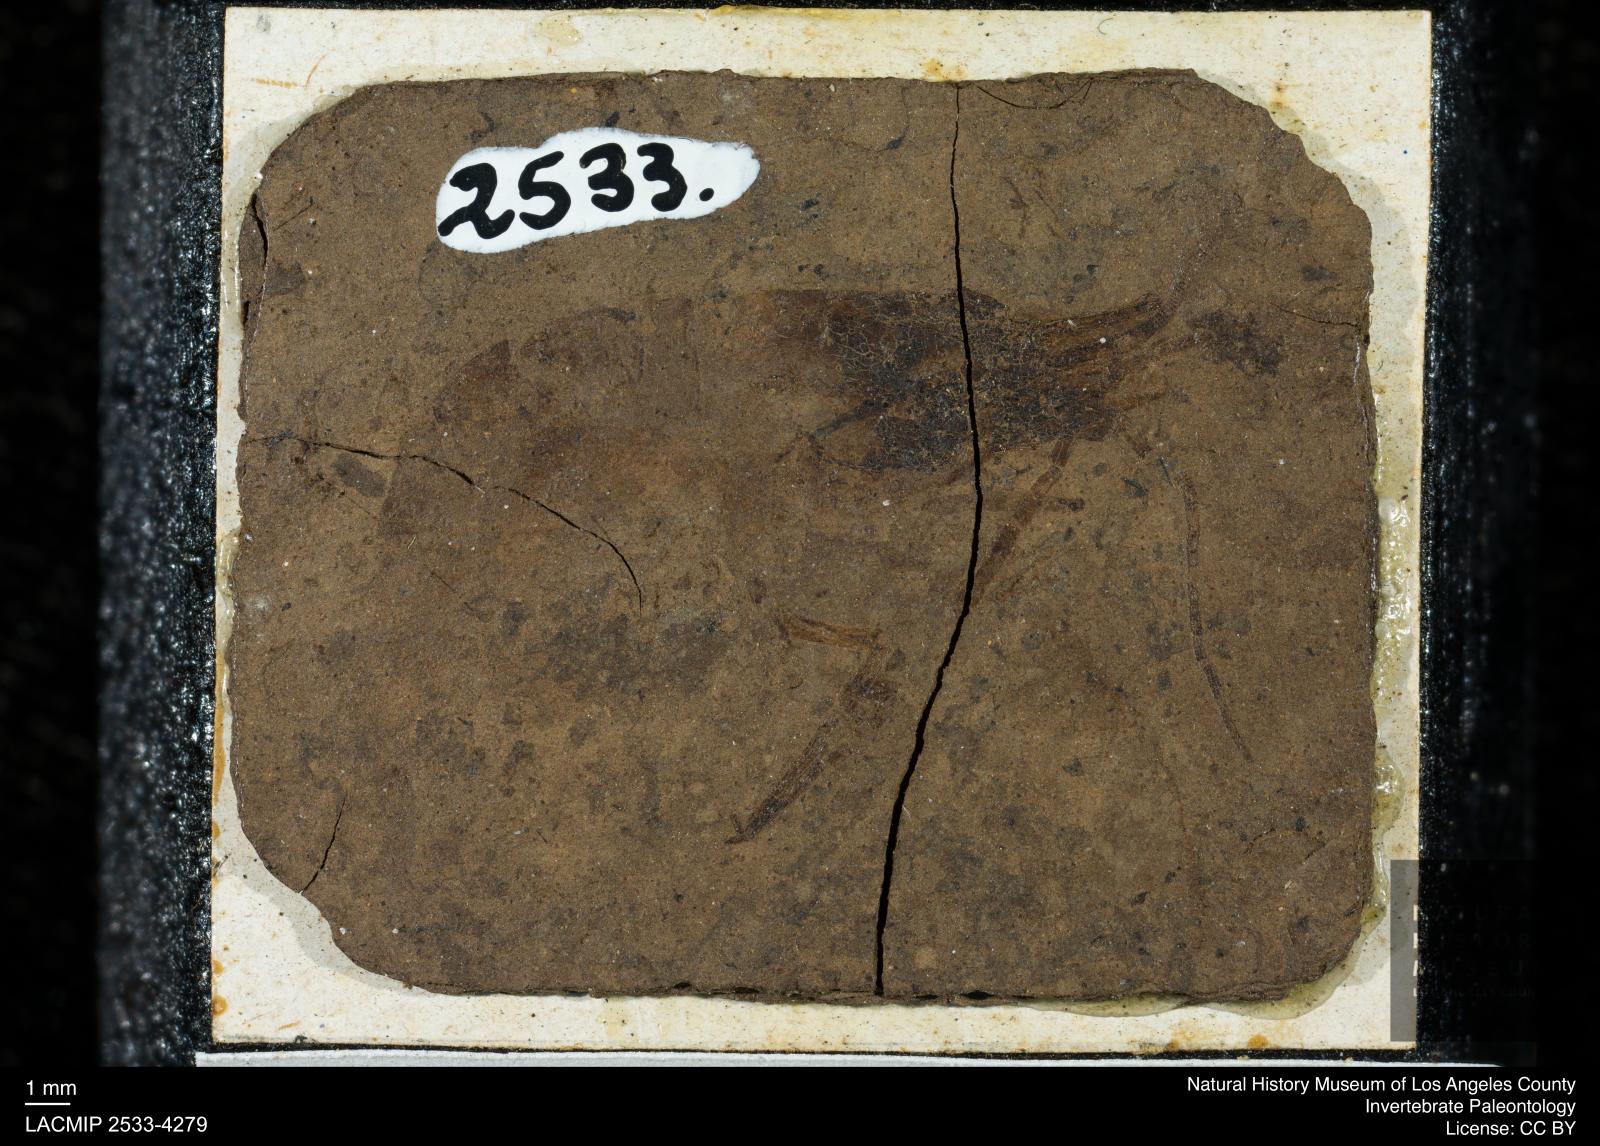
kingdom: Animalia
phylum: Arthropoda
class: Malacostraca
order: Decapoda
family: Palaemonidae
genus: Micropsalis
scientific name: Micropsalis papyracea
